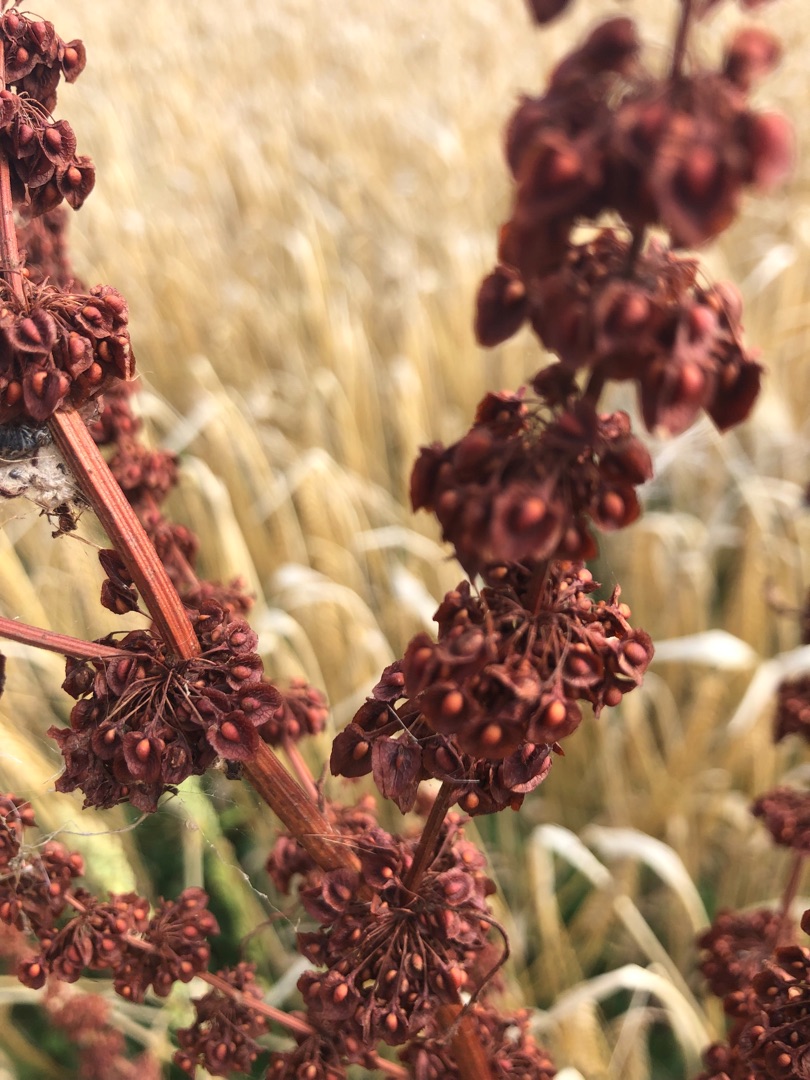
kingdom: Plantae
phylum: Tracheophyta
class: Magnoliopsida
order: Caryophyllales
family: Polygonaceae
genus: Rumex
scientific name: Rumex crispus
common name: Kruset skræppe
